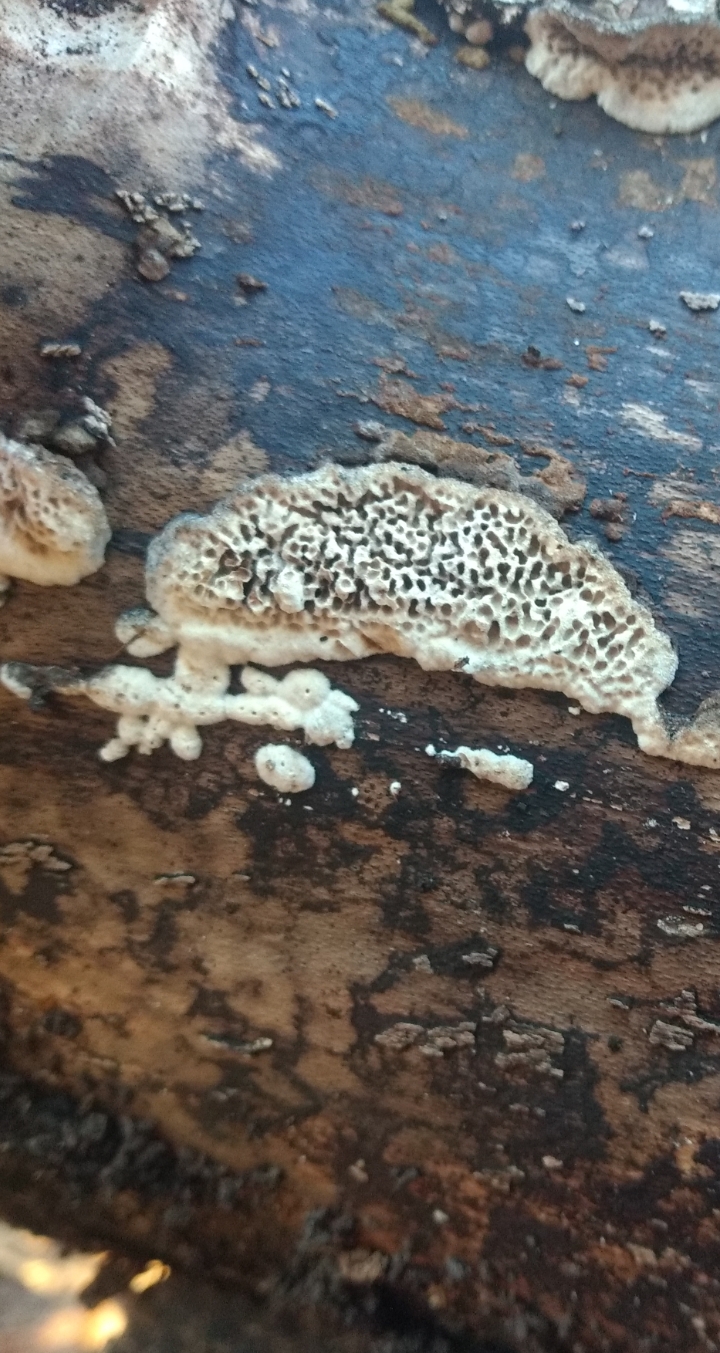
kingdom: Fungi
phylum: Basidiomycota
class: Agaricomycetes
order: Polyporales
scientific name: Polyporales
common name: poresvampordenen
